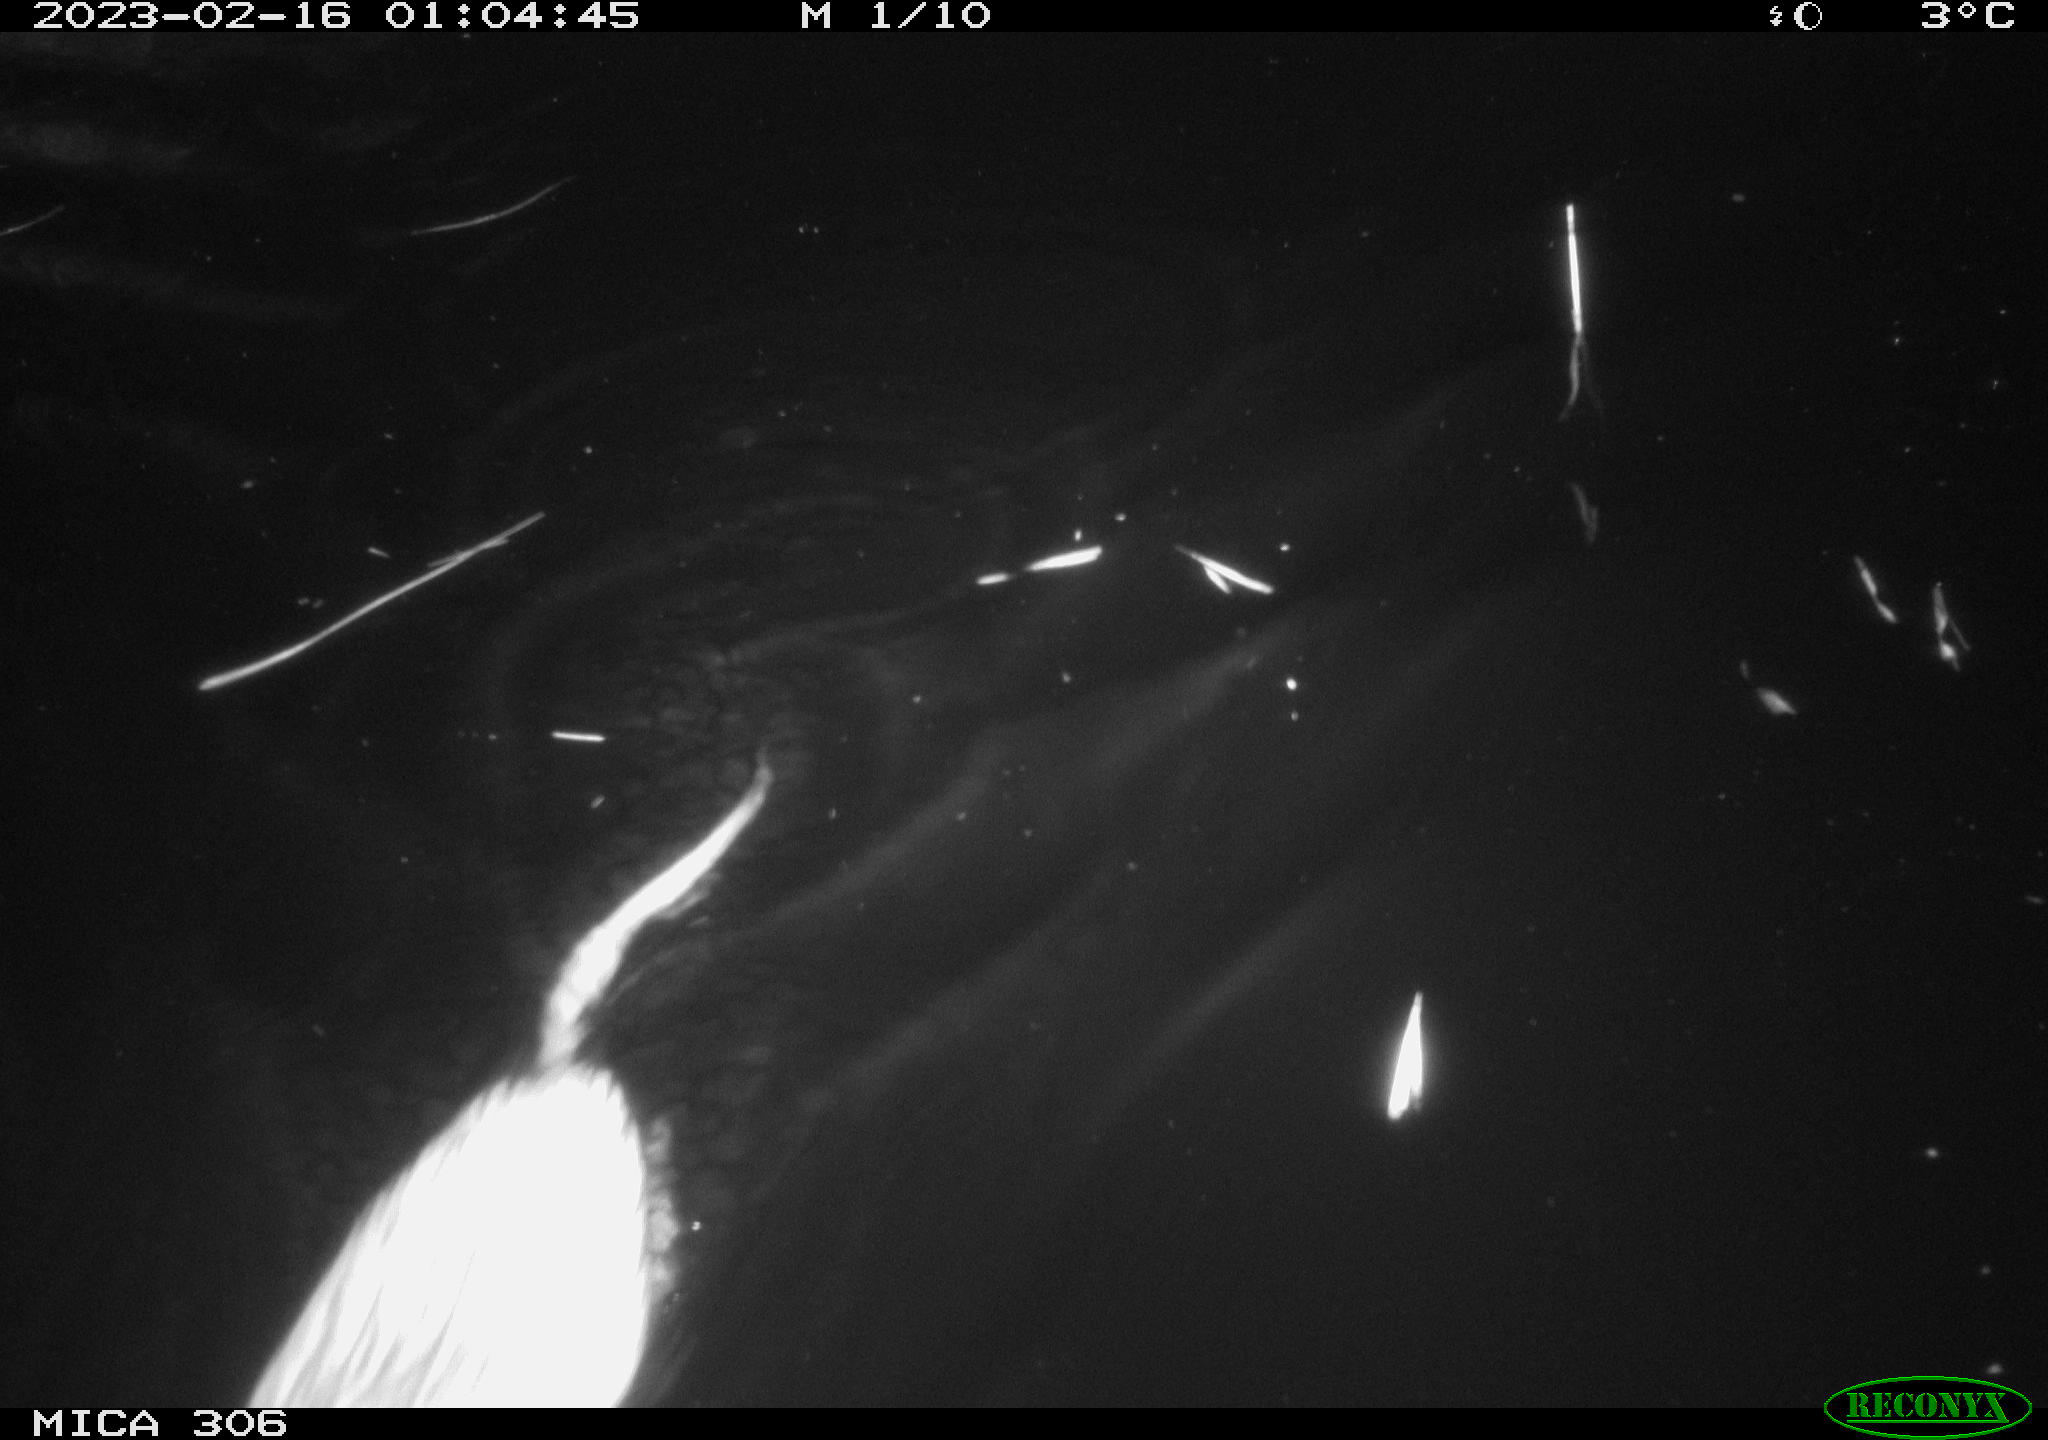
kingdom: Animalia
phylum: Chordata
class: Mammalia
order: Rodentia
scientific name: Rodentia
